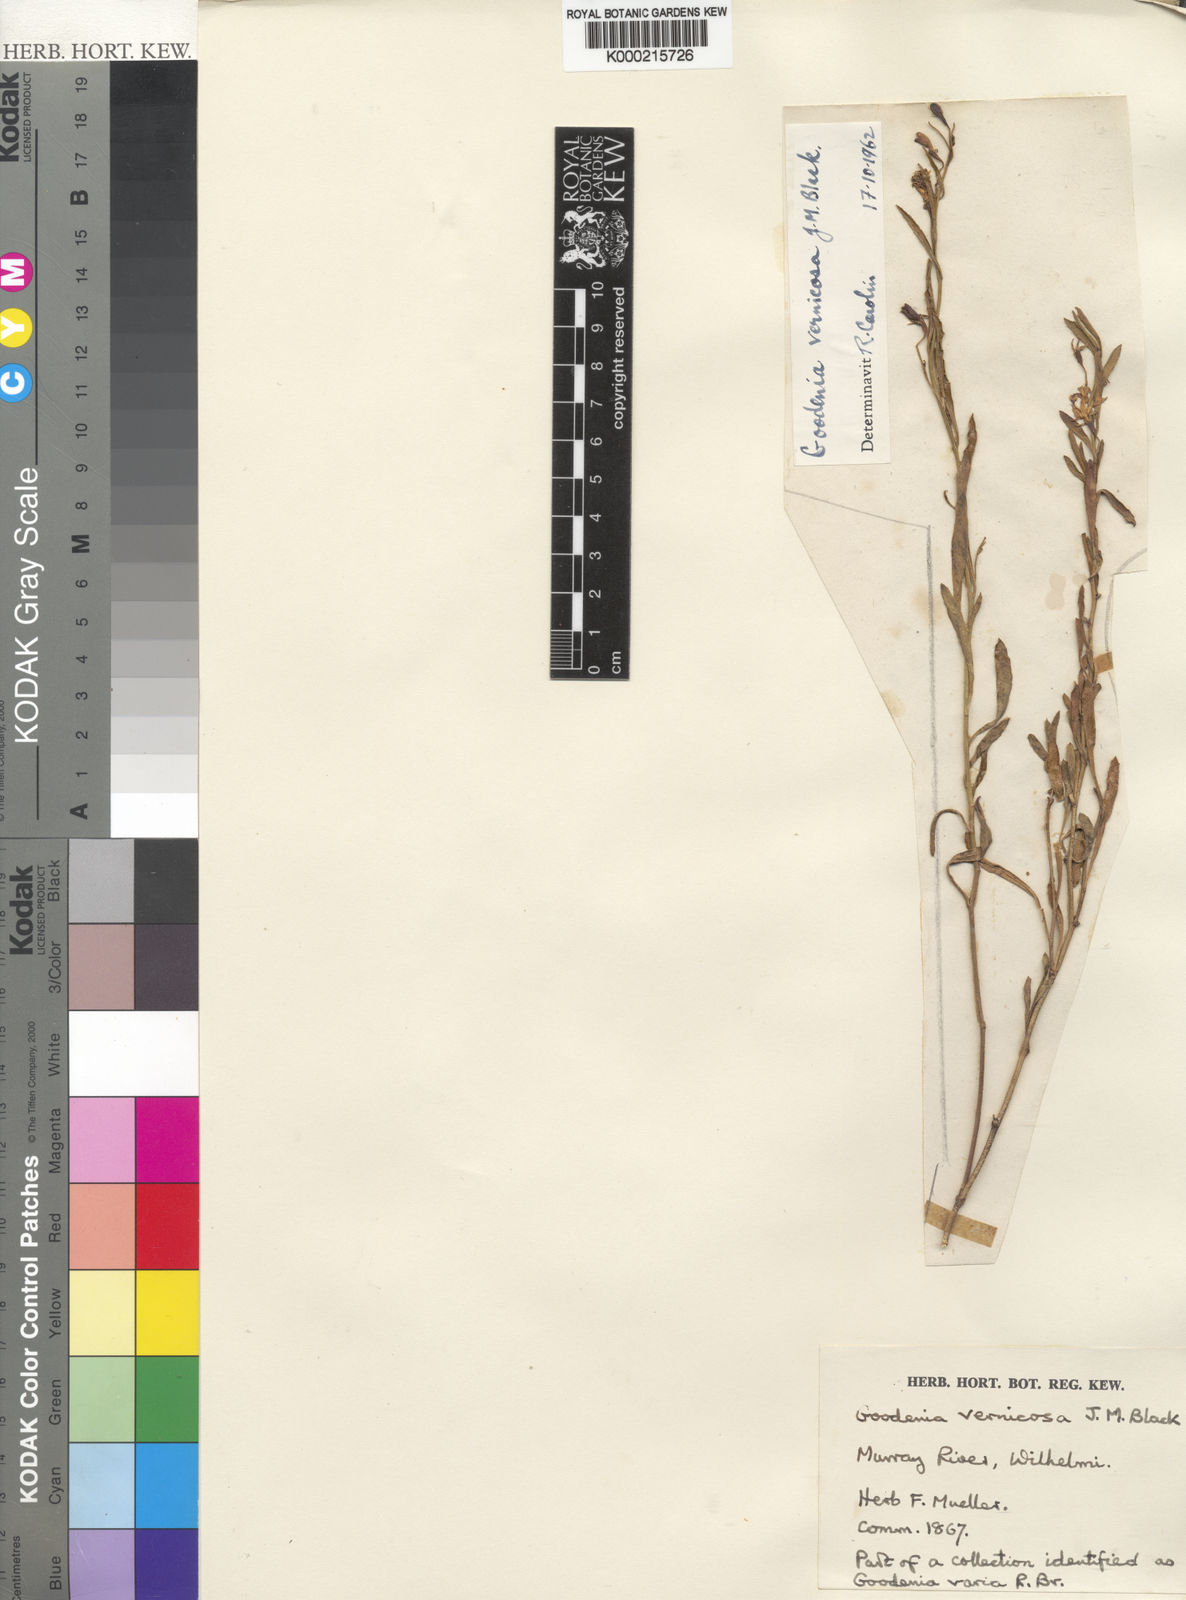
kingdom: Plantae
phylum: Tracheophyta
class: Magnoliopsida
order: Asterales
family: Goodeniaceae
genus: Goodenia
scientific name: Goodenia vernicosa
